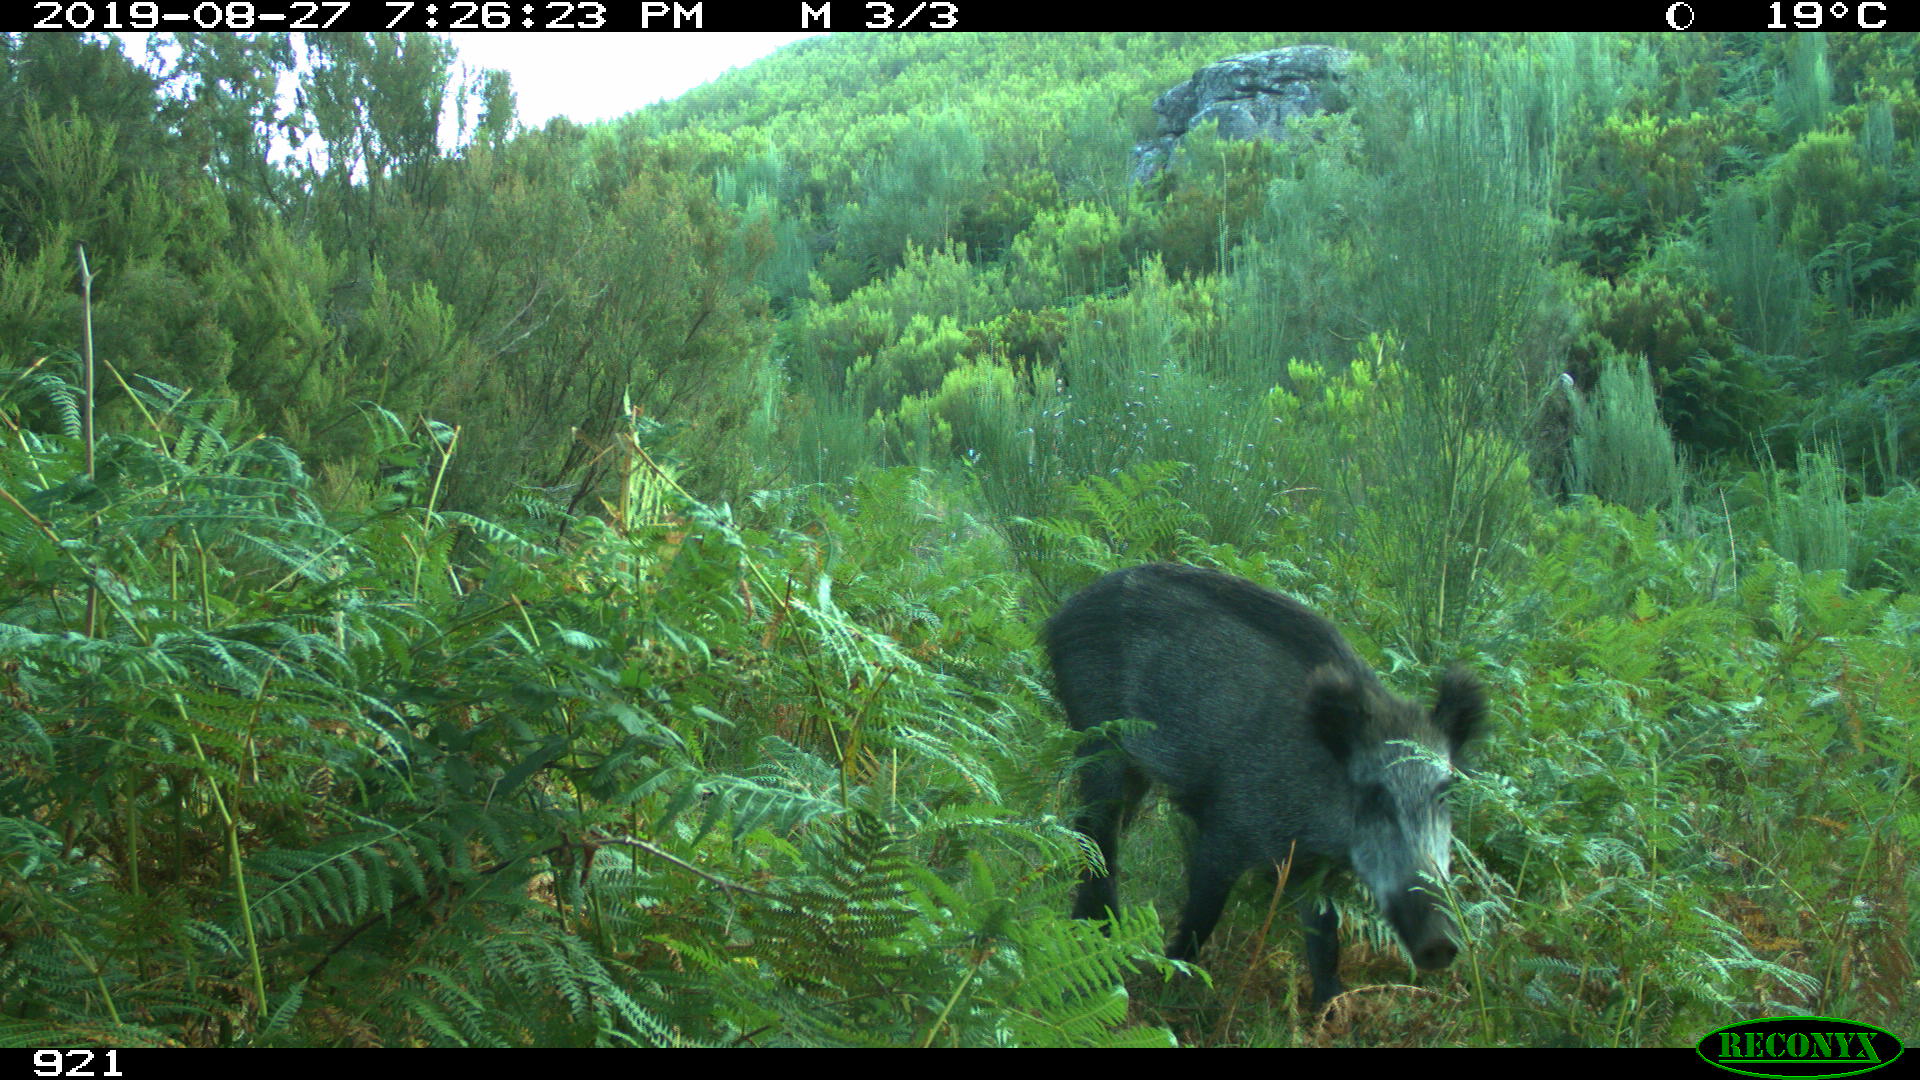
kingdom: Animalia
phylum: Chordata
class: Mammalia
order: Artiodactyla
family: Suidae
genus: Sus
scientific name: Sus scrofa
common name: Wild boar
